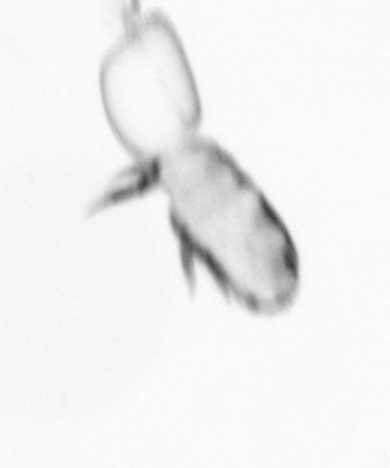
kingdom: Animalia
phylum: Annelida
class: Polychaeta
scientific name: Polychaeta
